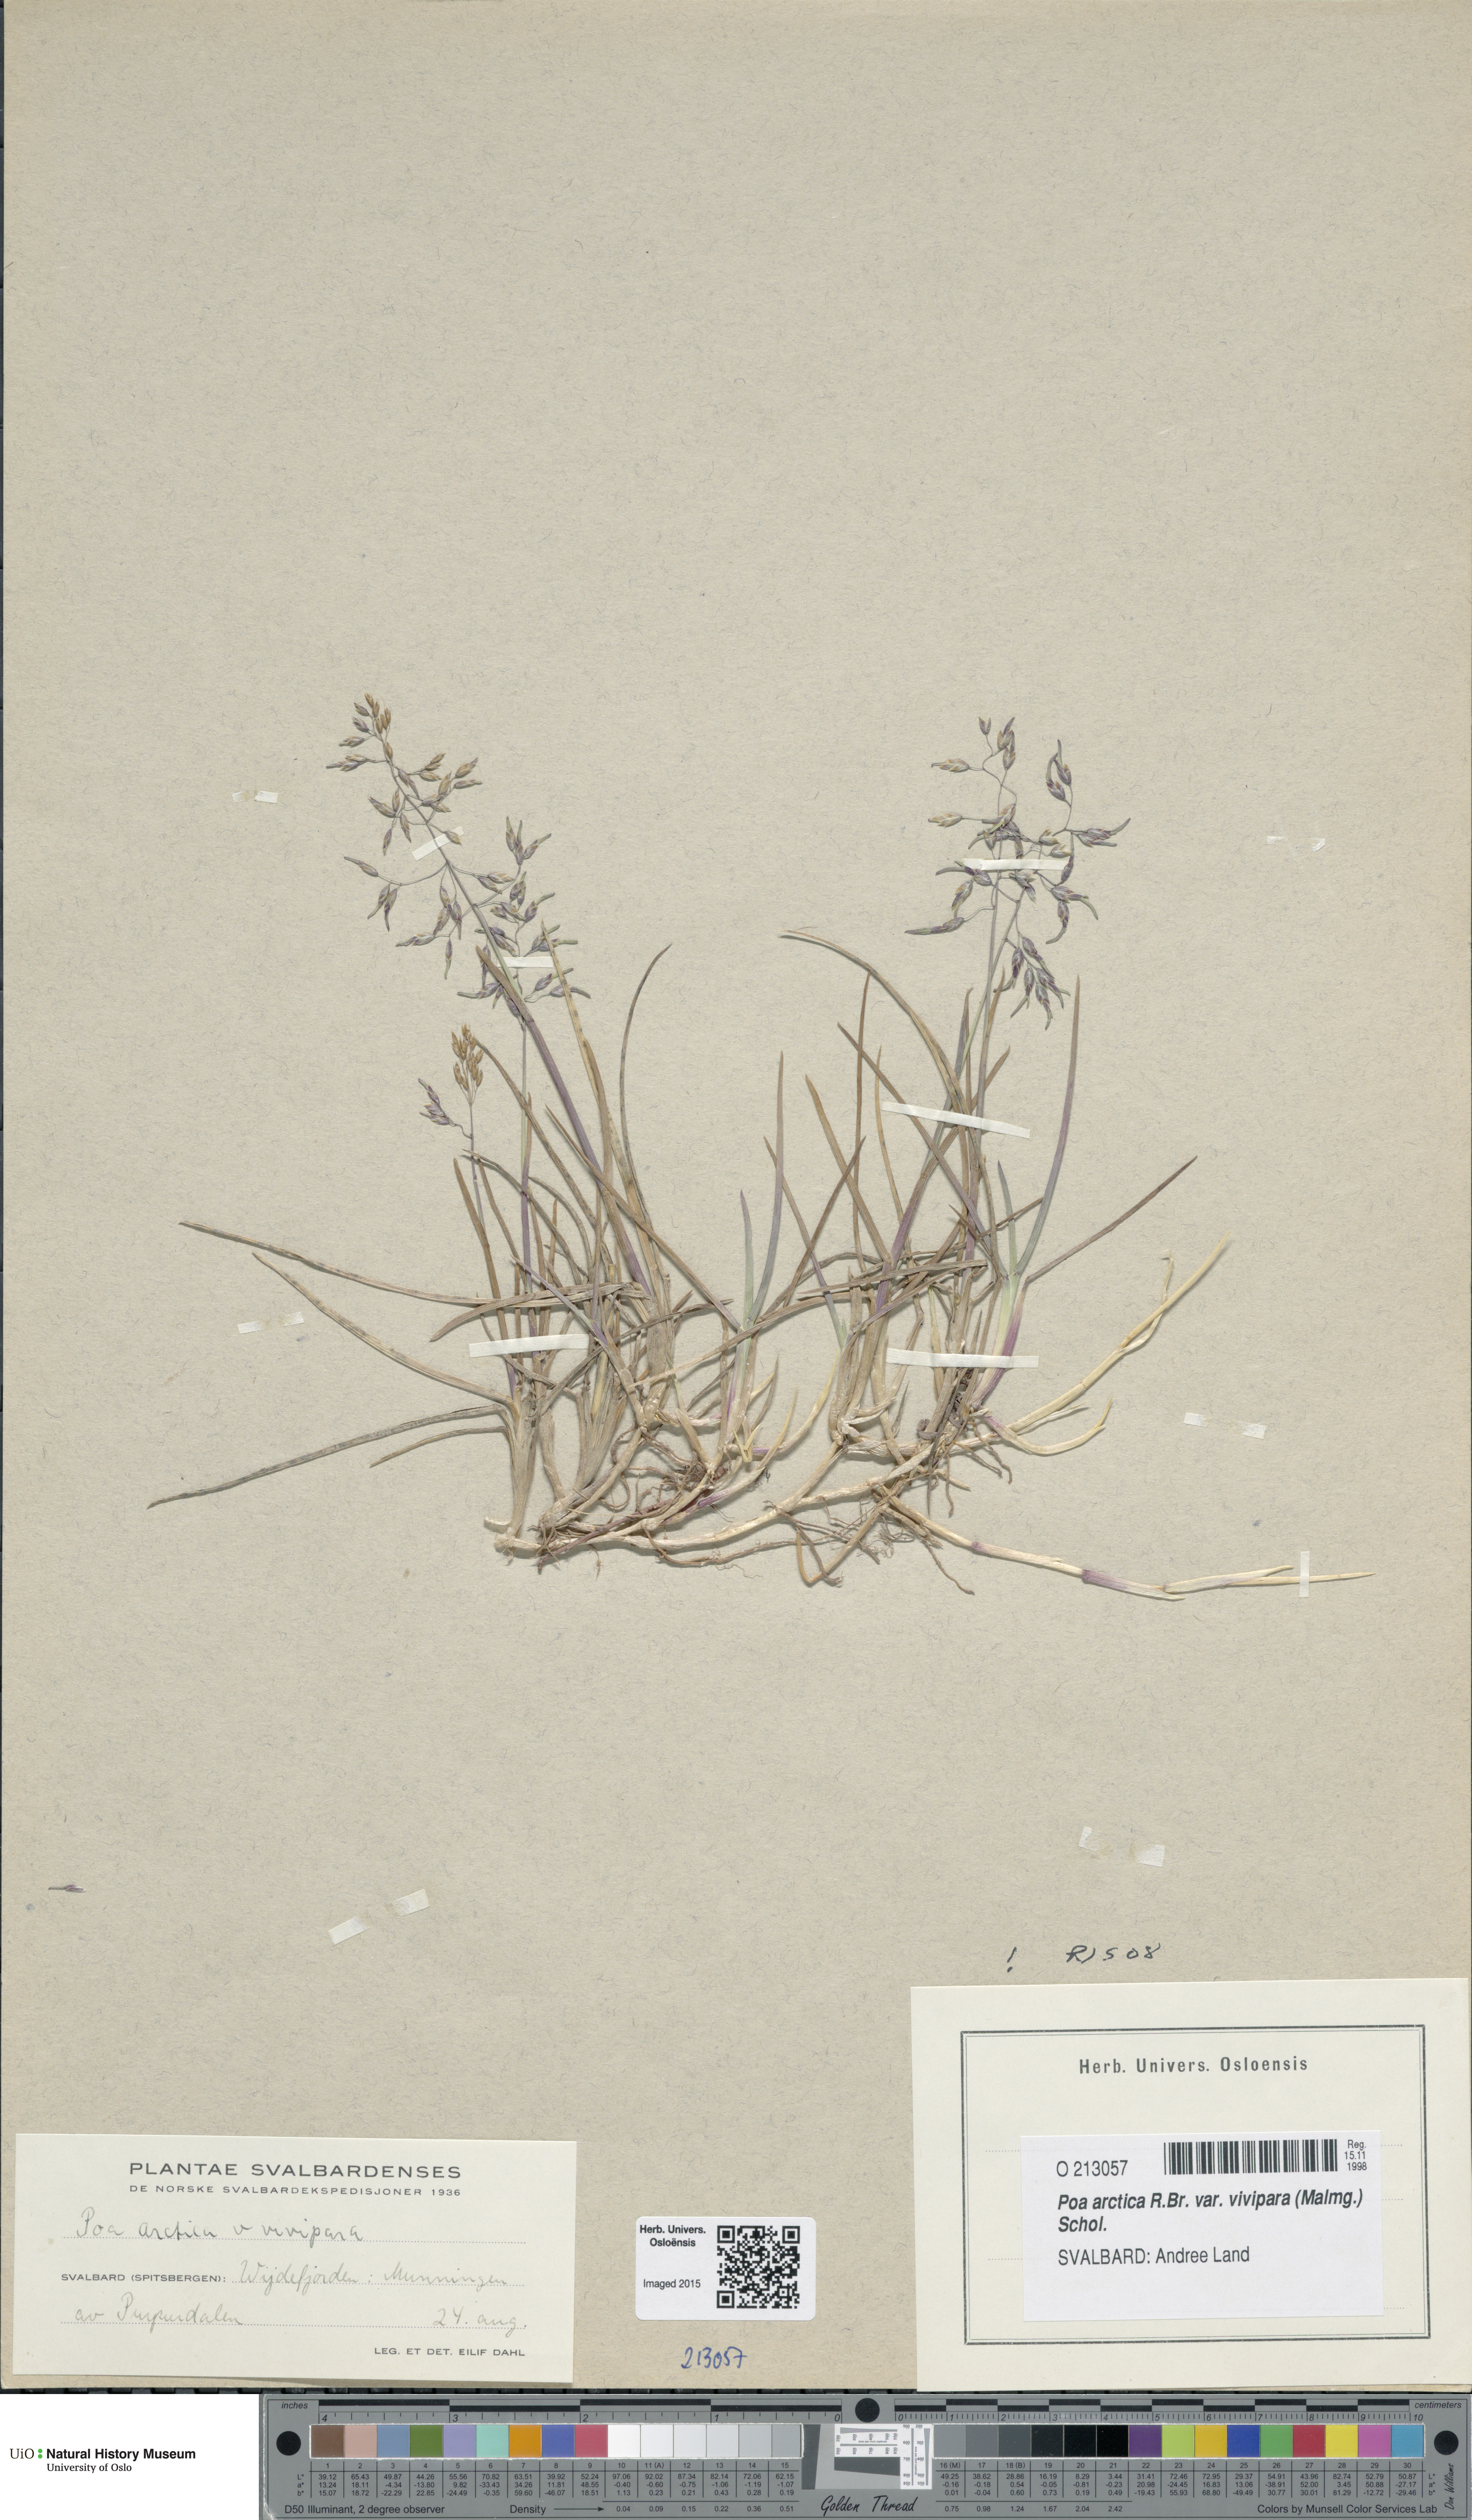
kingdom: Plantae
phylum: Tracheophyta
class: Liliopsida
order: Poales
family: Poaceae
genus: Poa
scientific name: Poa arctica
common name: Arctic bluegrass
